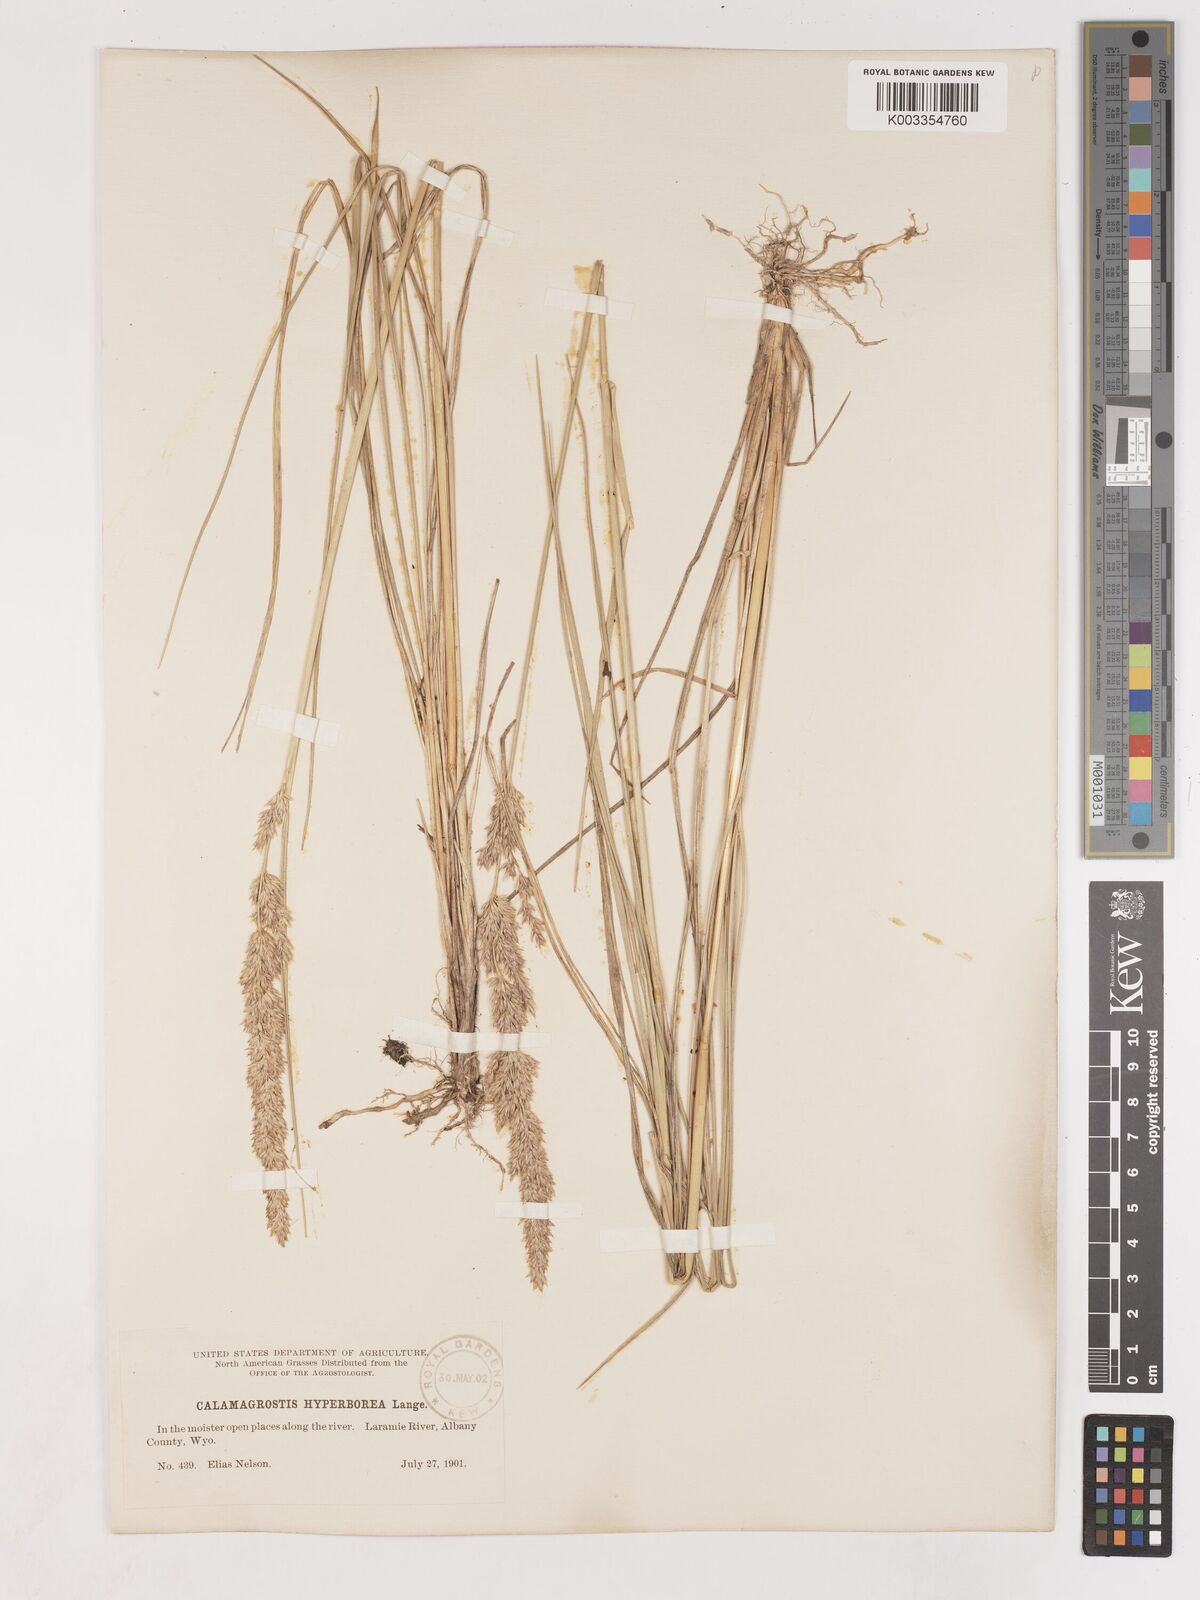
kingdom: Plantae
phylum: Tracheophyta
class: Liliopsida
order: Poales
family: Poaceae
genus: Cinnagrostis
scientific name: Cinnagrostis recta
